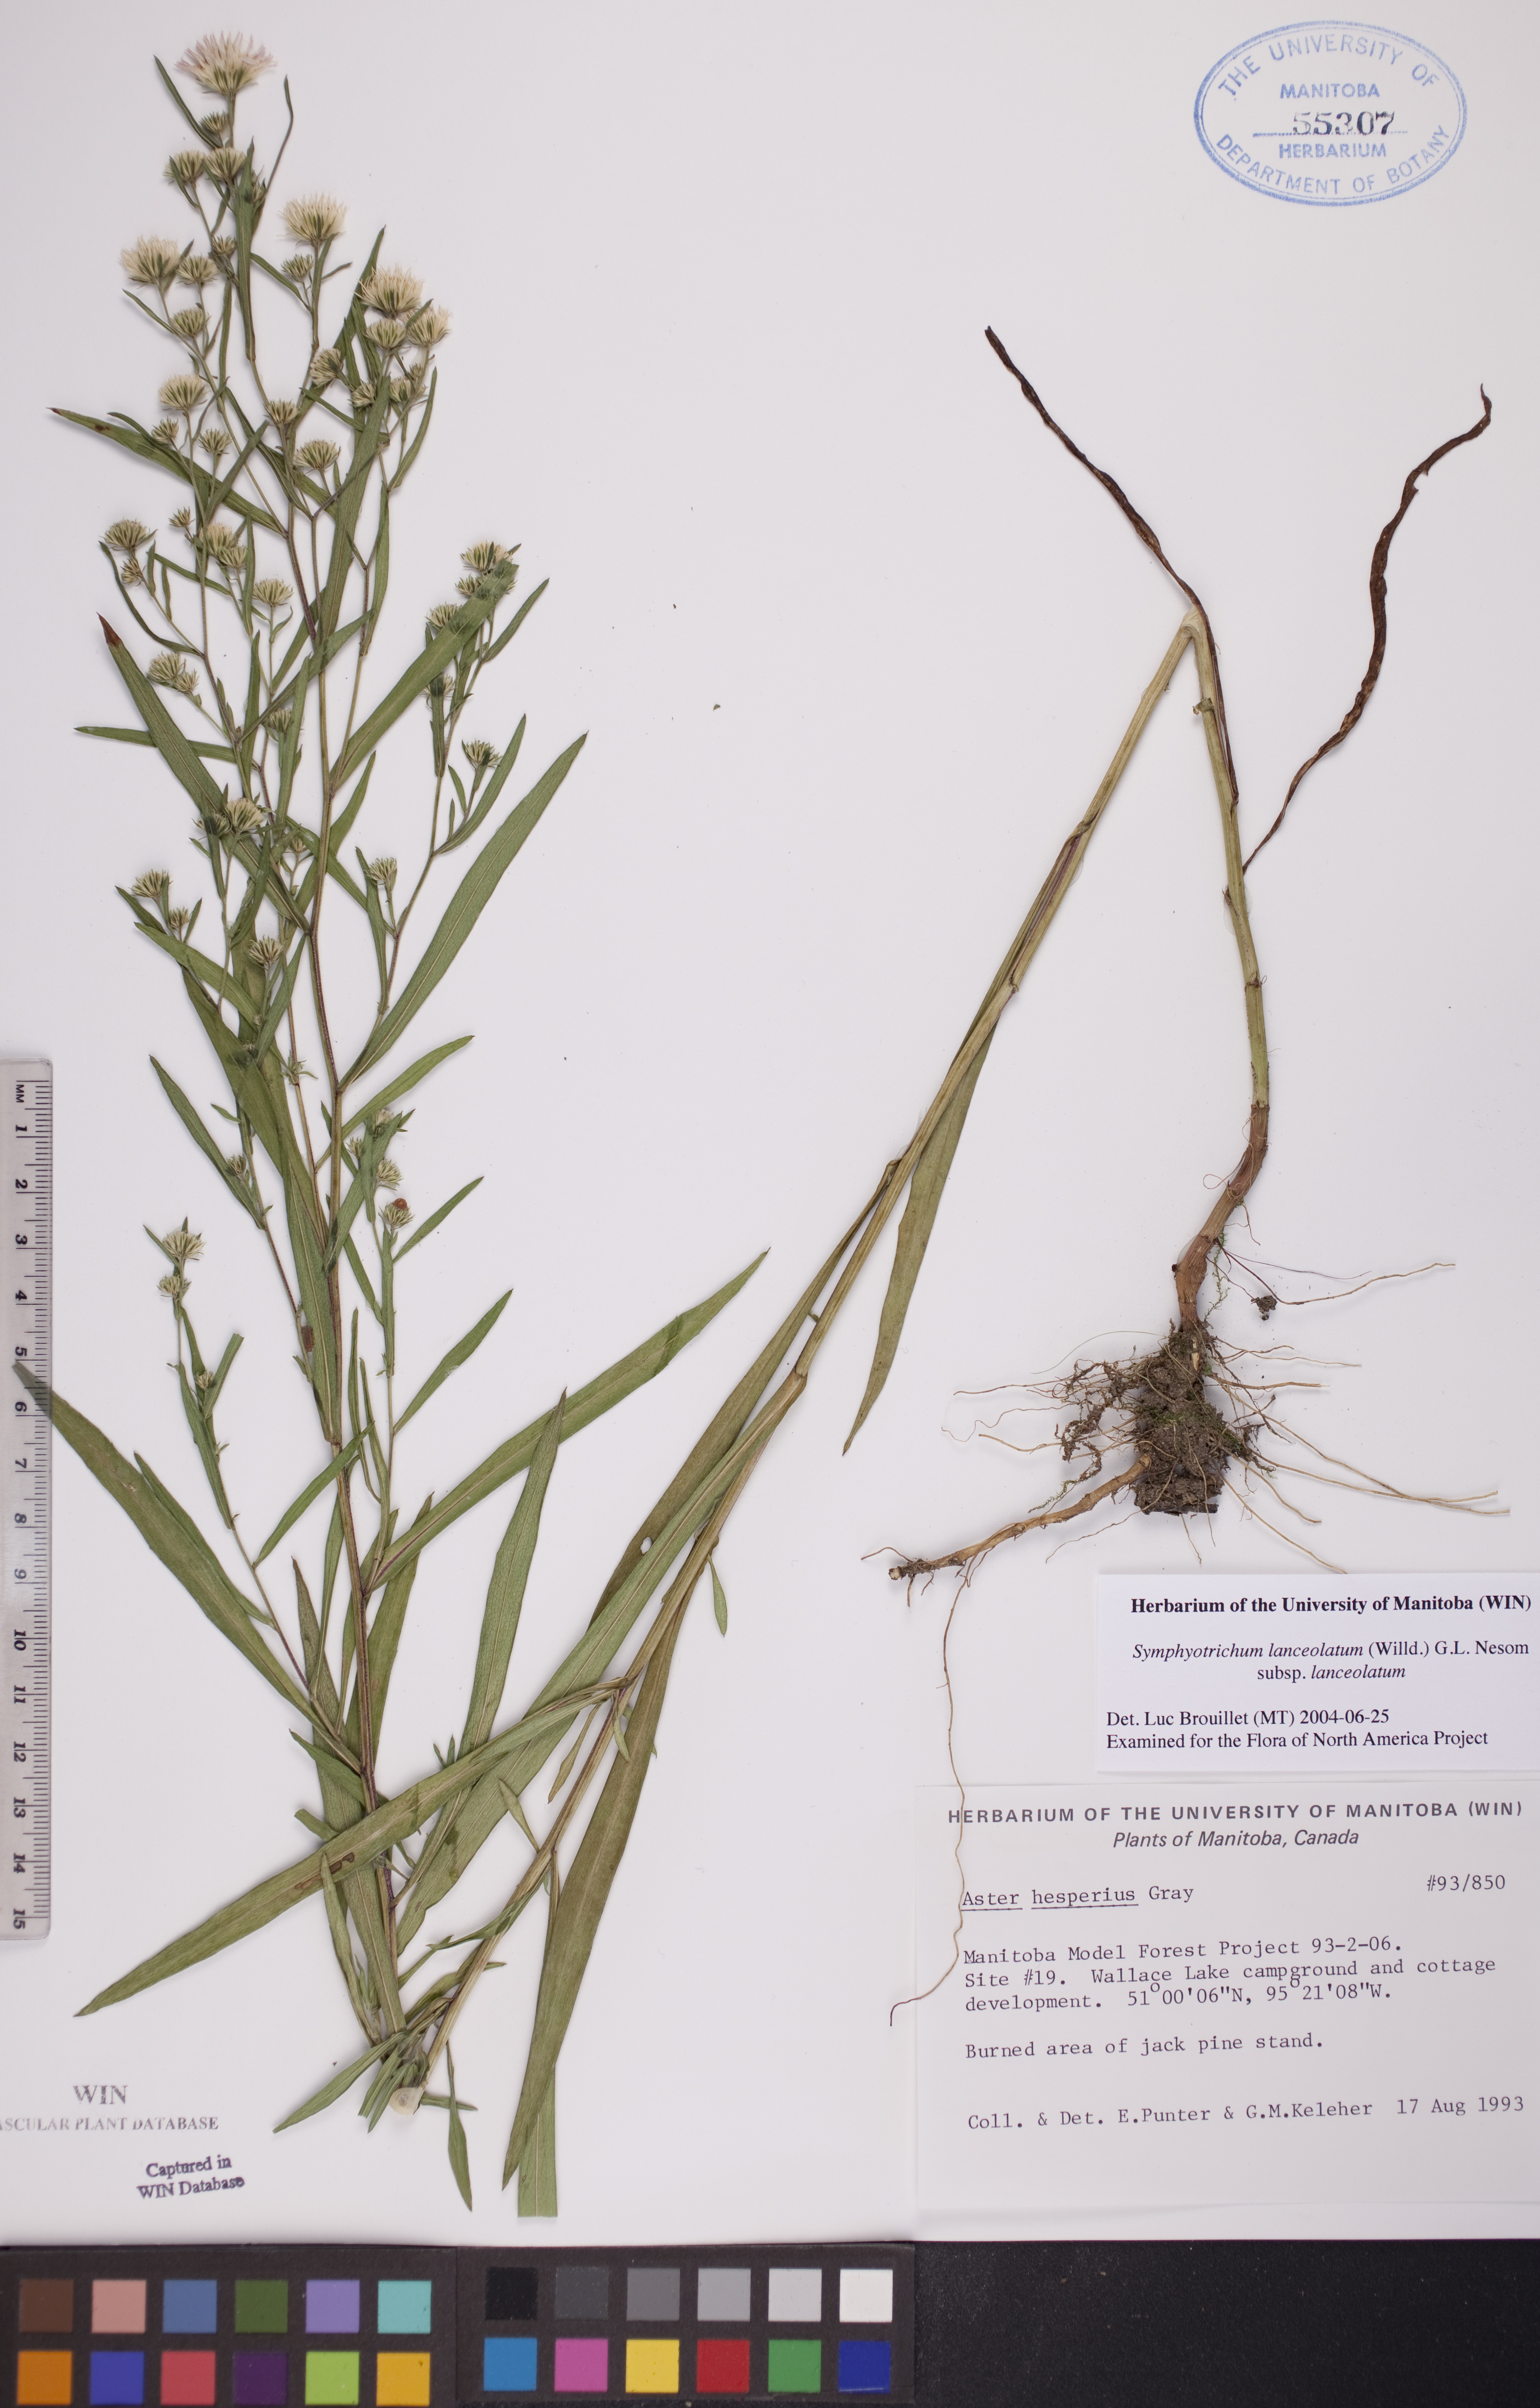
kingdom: Plantae
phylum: Tracheophyta
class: Magnoliopsida
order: Asterales
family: Asteraceae
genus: Symphyotrichum
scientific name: Symphyotrichum lanceolatum
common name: Panicled aster
